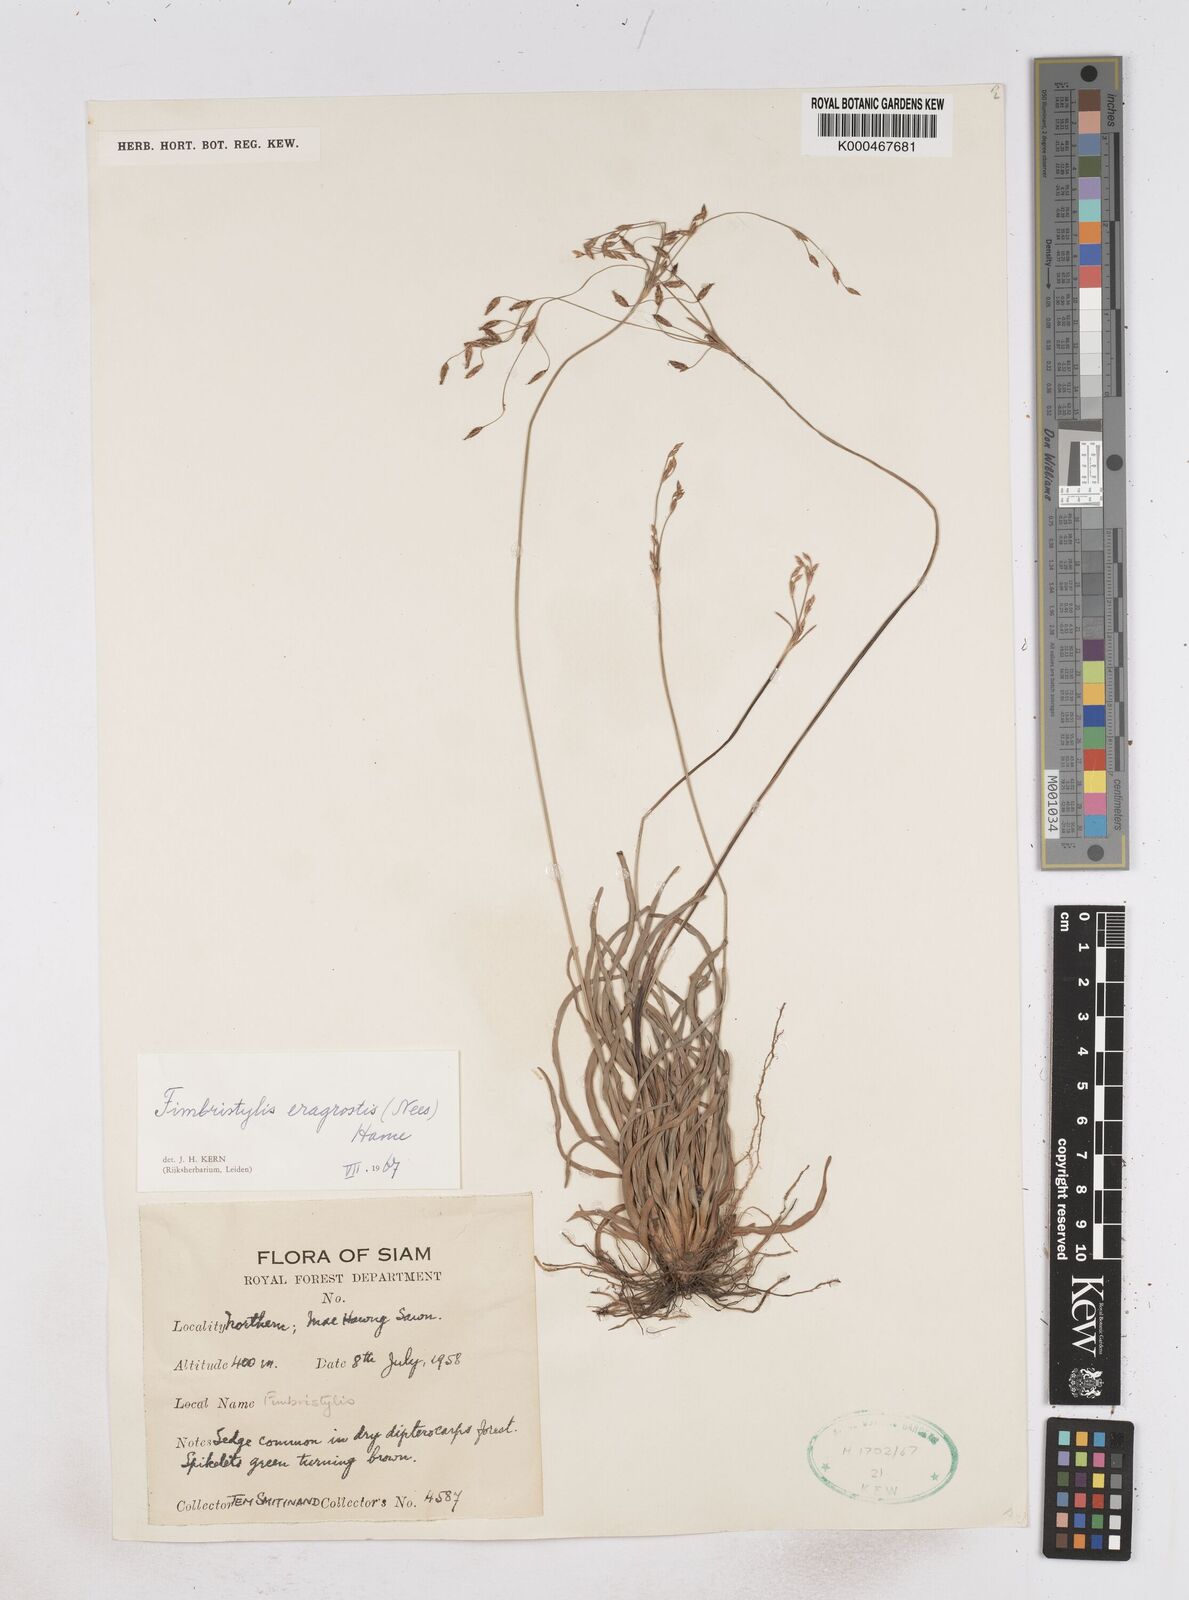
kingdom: Plantae
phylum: Tracheophyta
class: Liliopsida
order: Poales
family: Cyperaceae
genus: Fimbristylis
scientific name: Fimbristylis eragrostis
